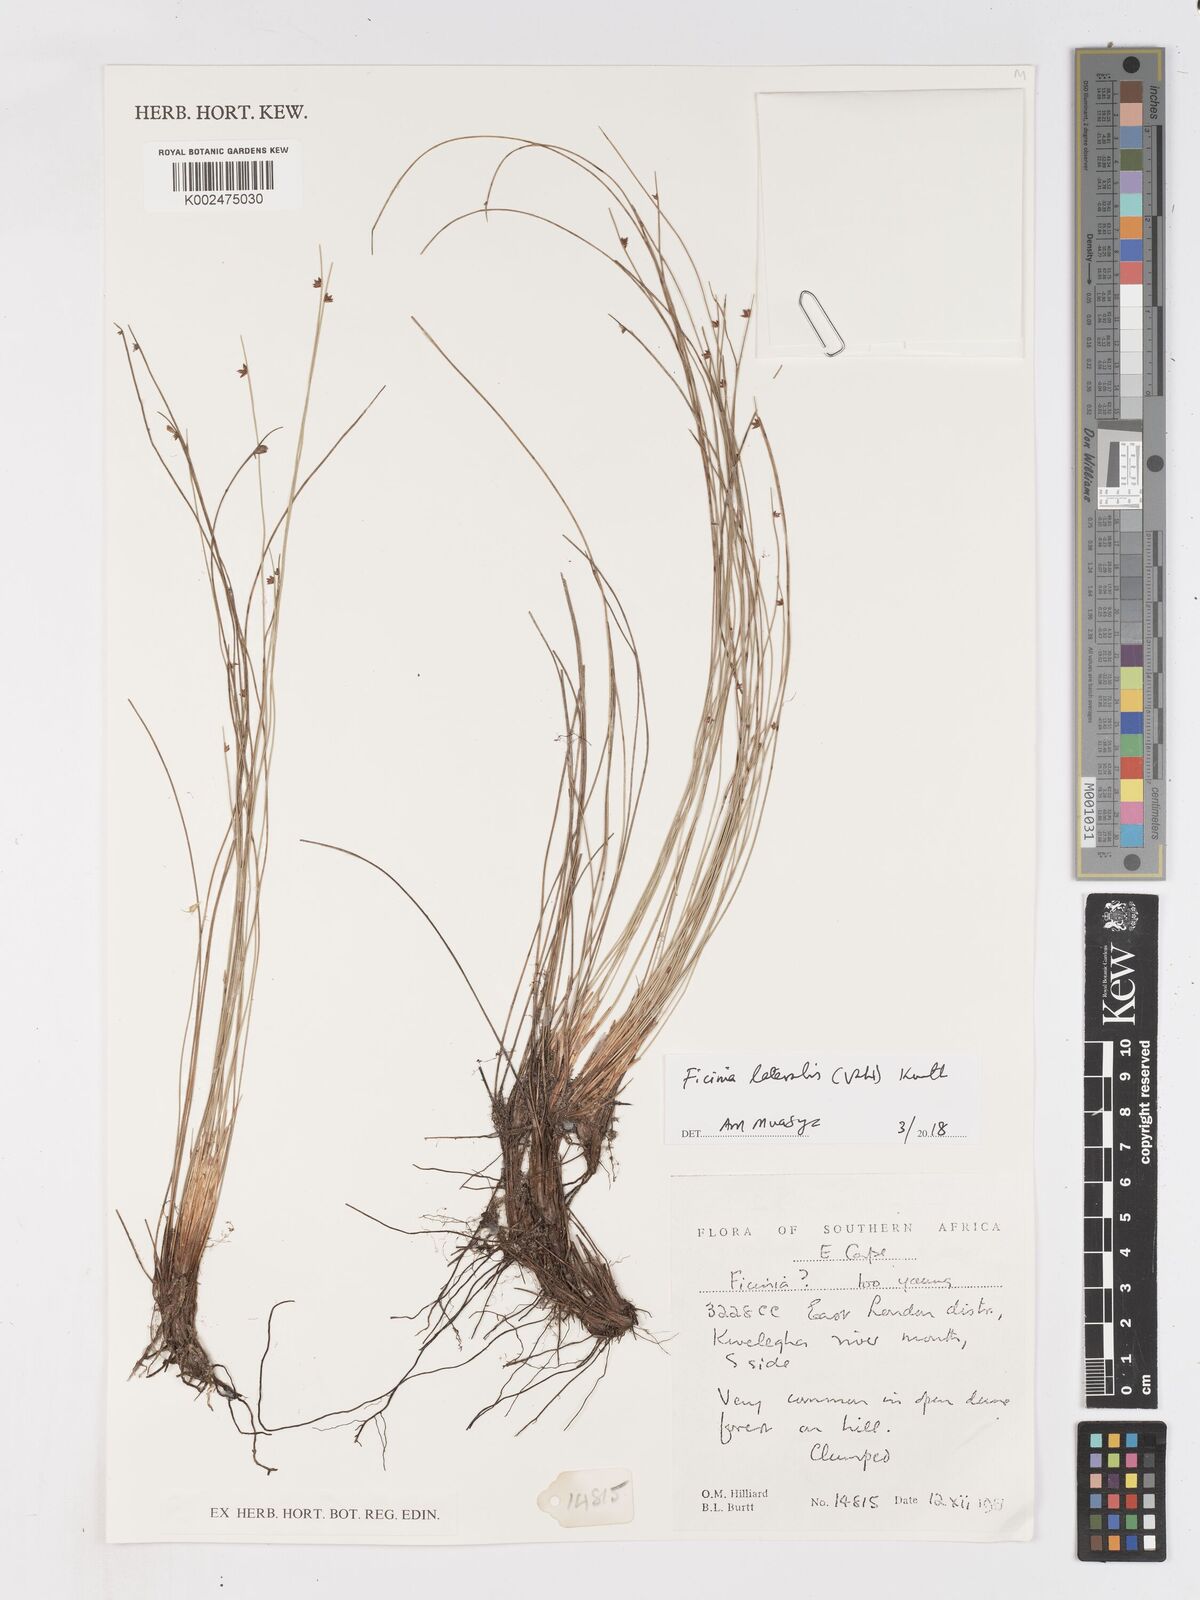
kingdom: Plantae
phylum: Tracheophyta
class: Liliopsida
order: Poales
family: Cyperaceae
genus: Ficinia
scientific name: Ficinia lateralis
